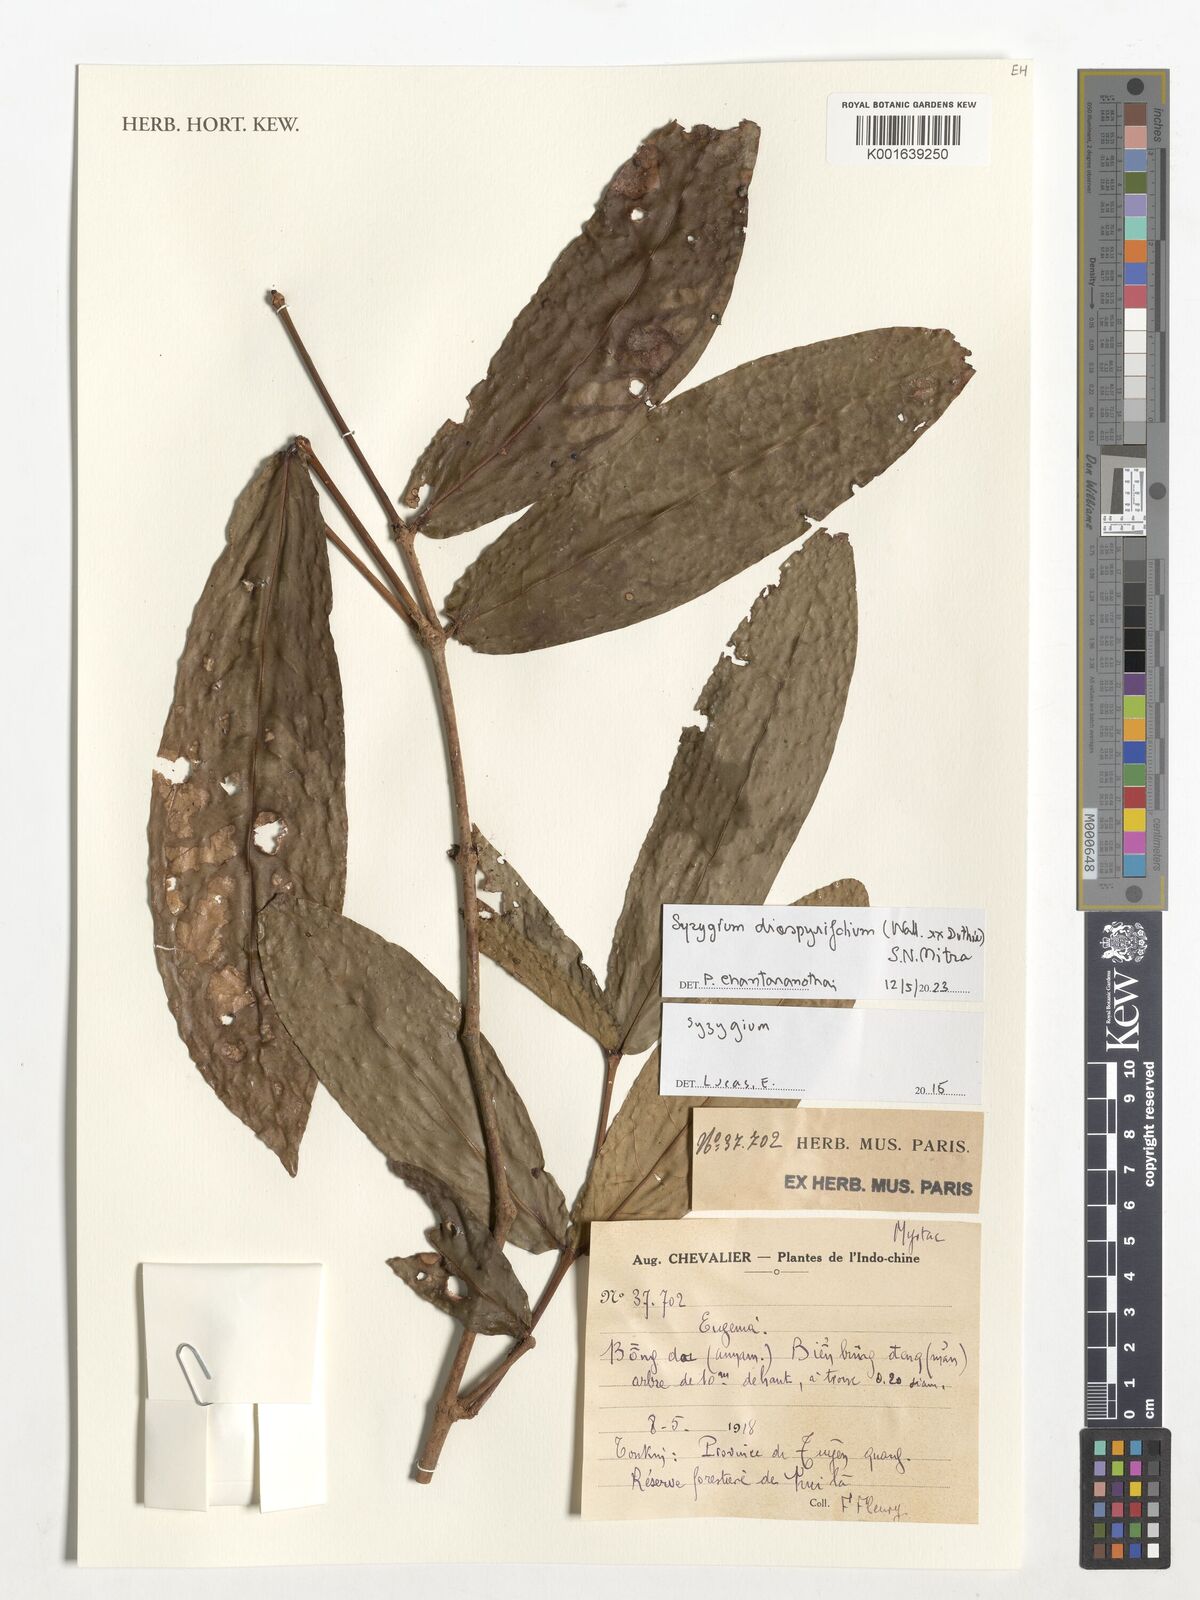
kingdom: Plantae
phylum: Tracheophyta
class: Magnoliopsida
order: Myrtales
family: Myrtaceae
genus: Syzygium
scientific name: Syzygium diospyrifolium
